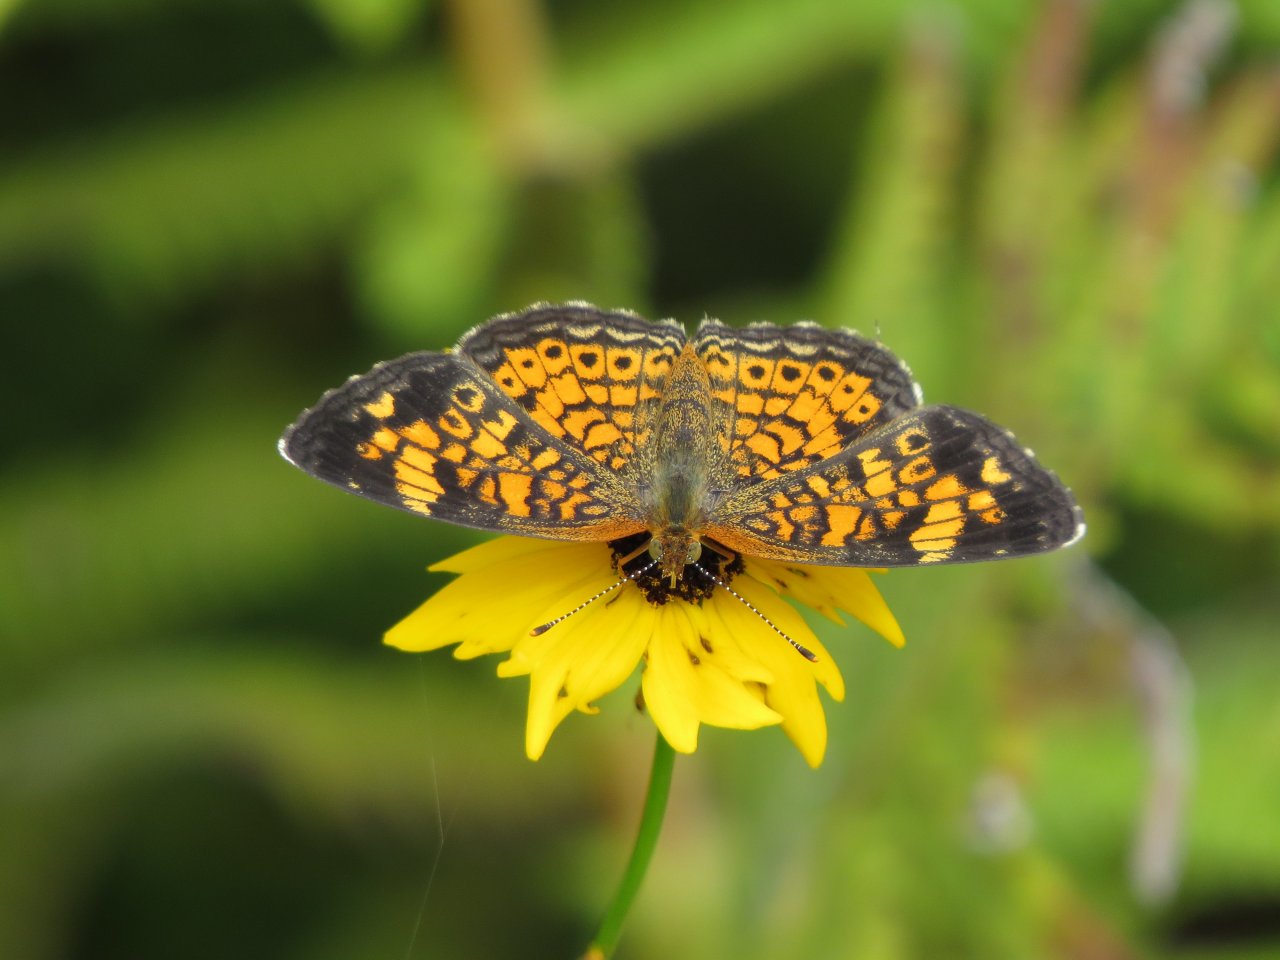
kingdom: Animalia
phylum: Arthropoda
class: Insecta
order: Lepidoptera
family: Nymphalidae
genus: Phyciodes
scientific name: Phyciodes tharos
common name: Pearl Crescent
